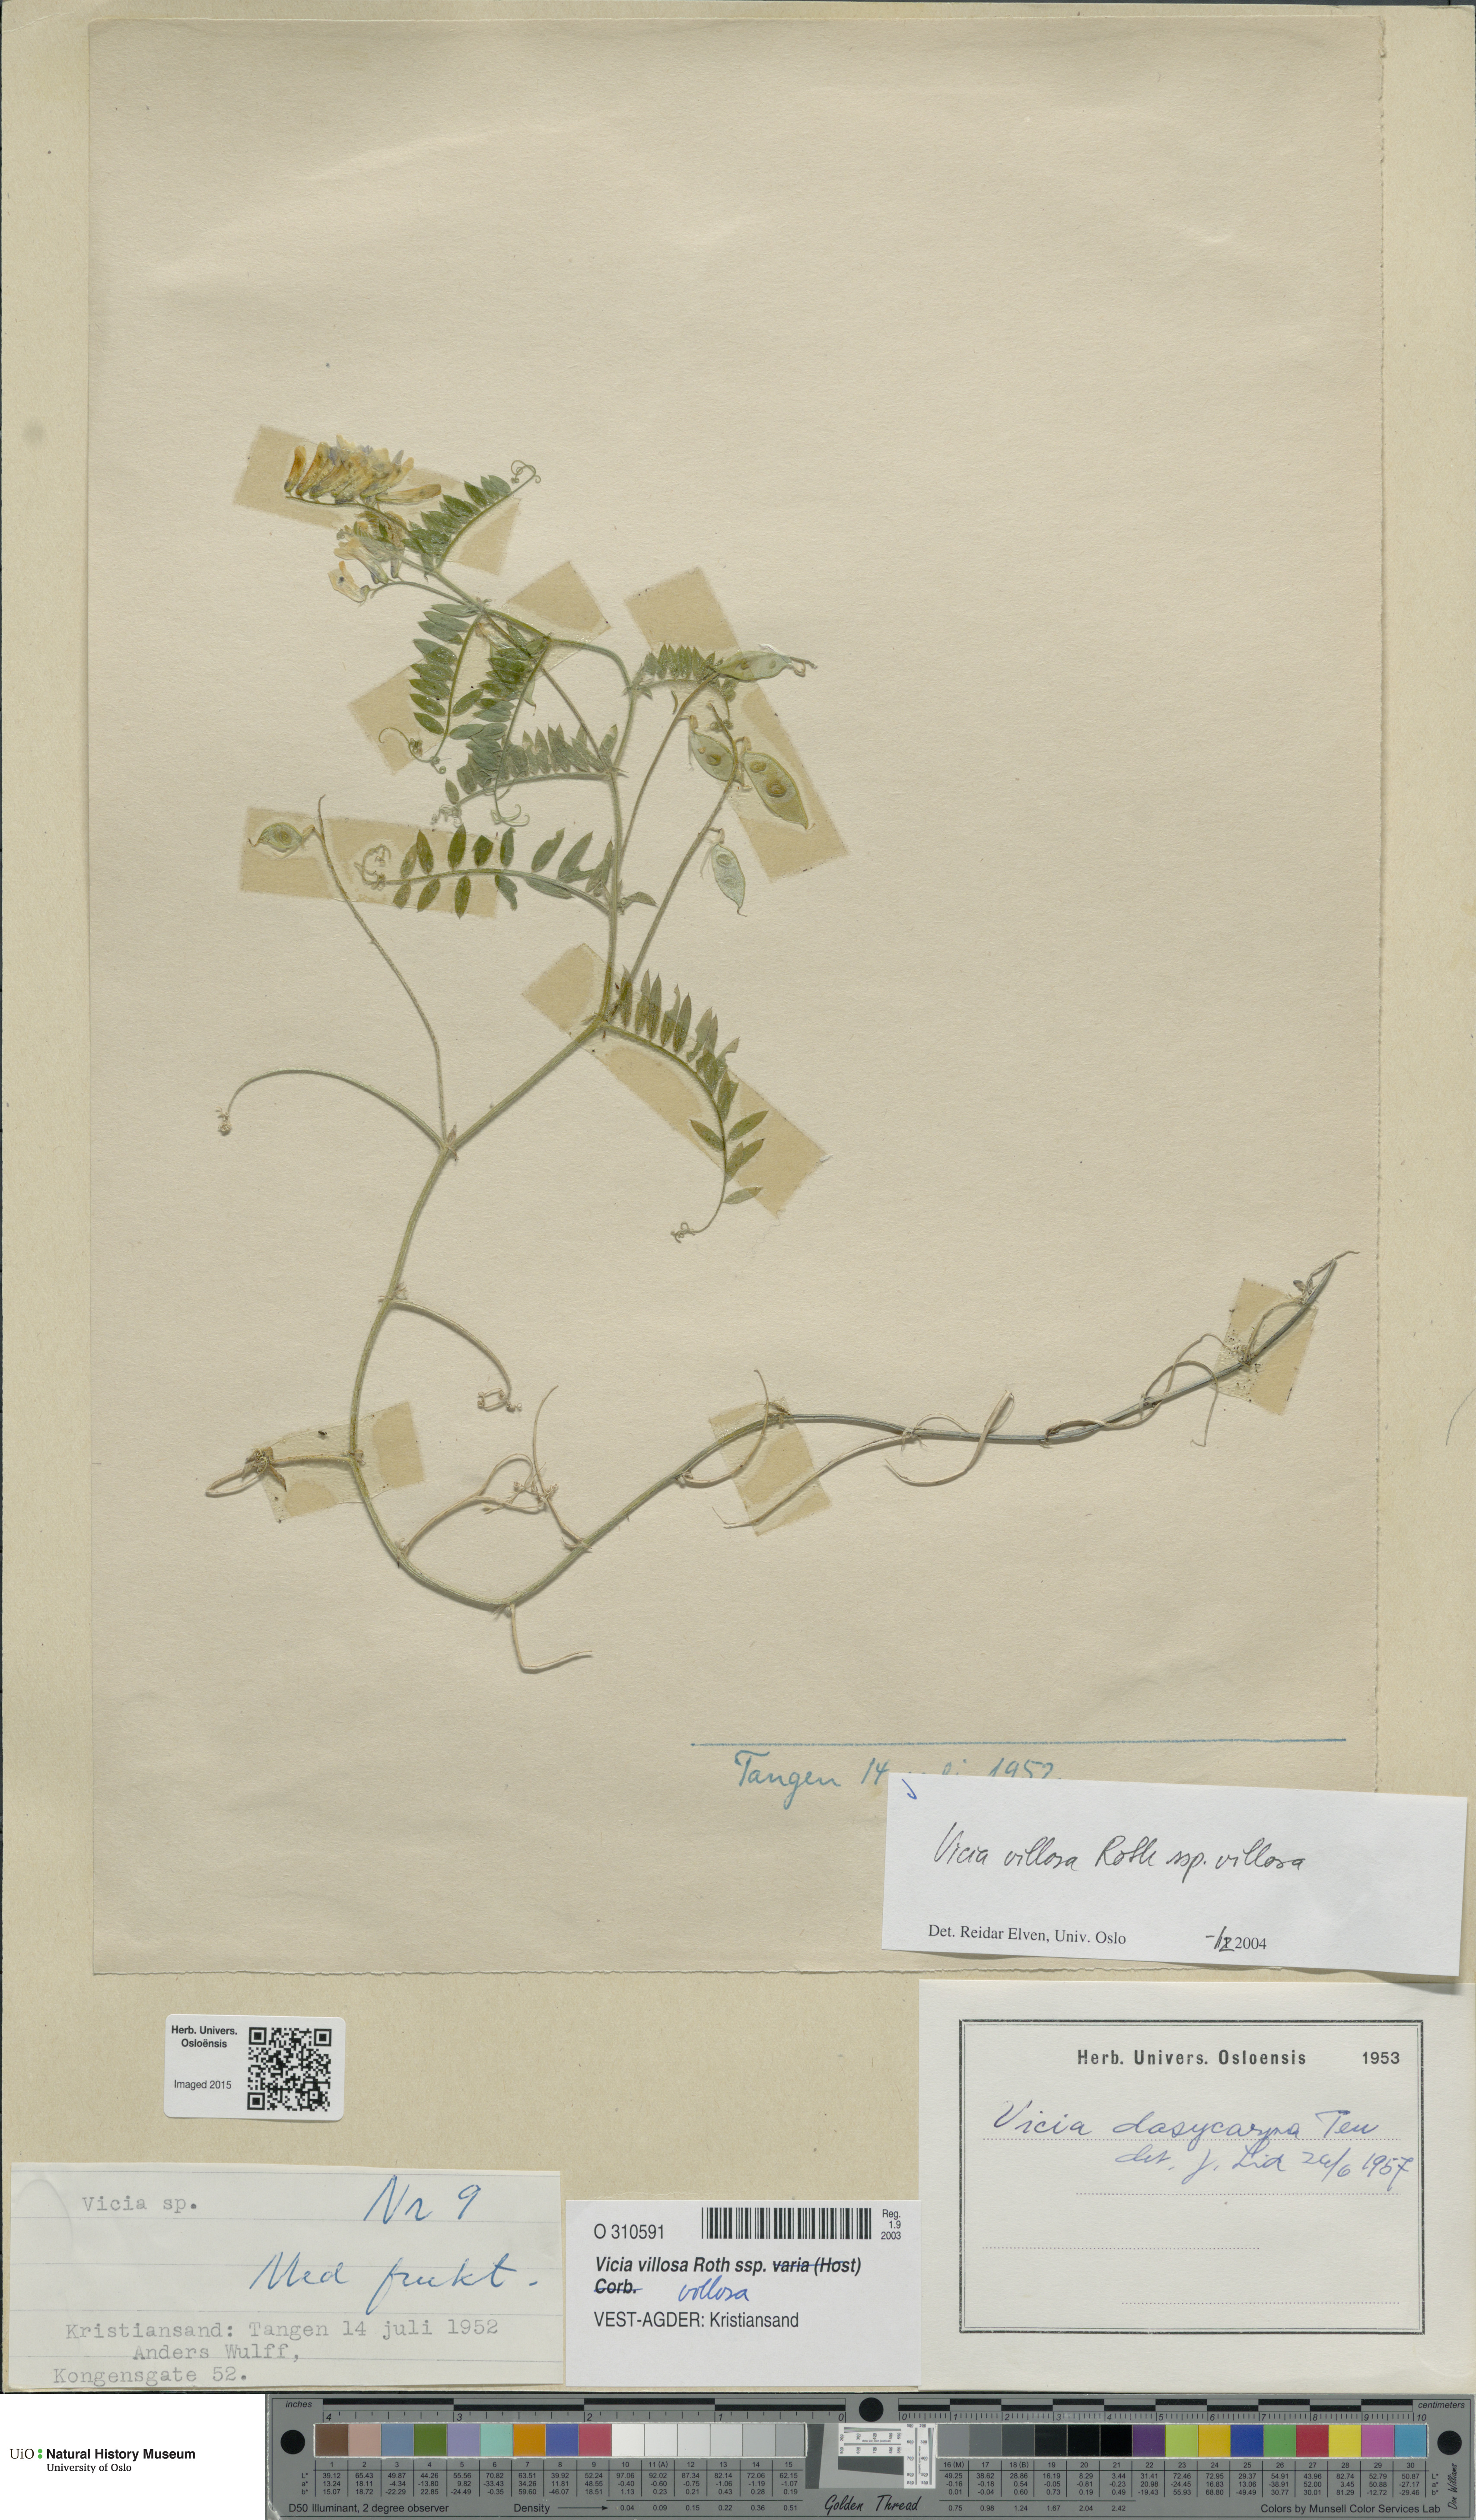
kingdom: Plantae
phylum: Tracheophyta
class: Magnoliopsida
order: Fabales
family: Fabaceae
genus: Vicia
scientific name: Vicia villosa
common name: Fodder vetch
